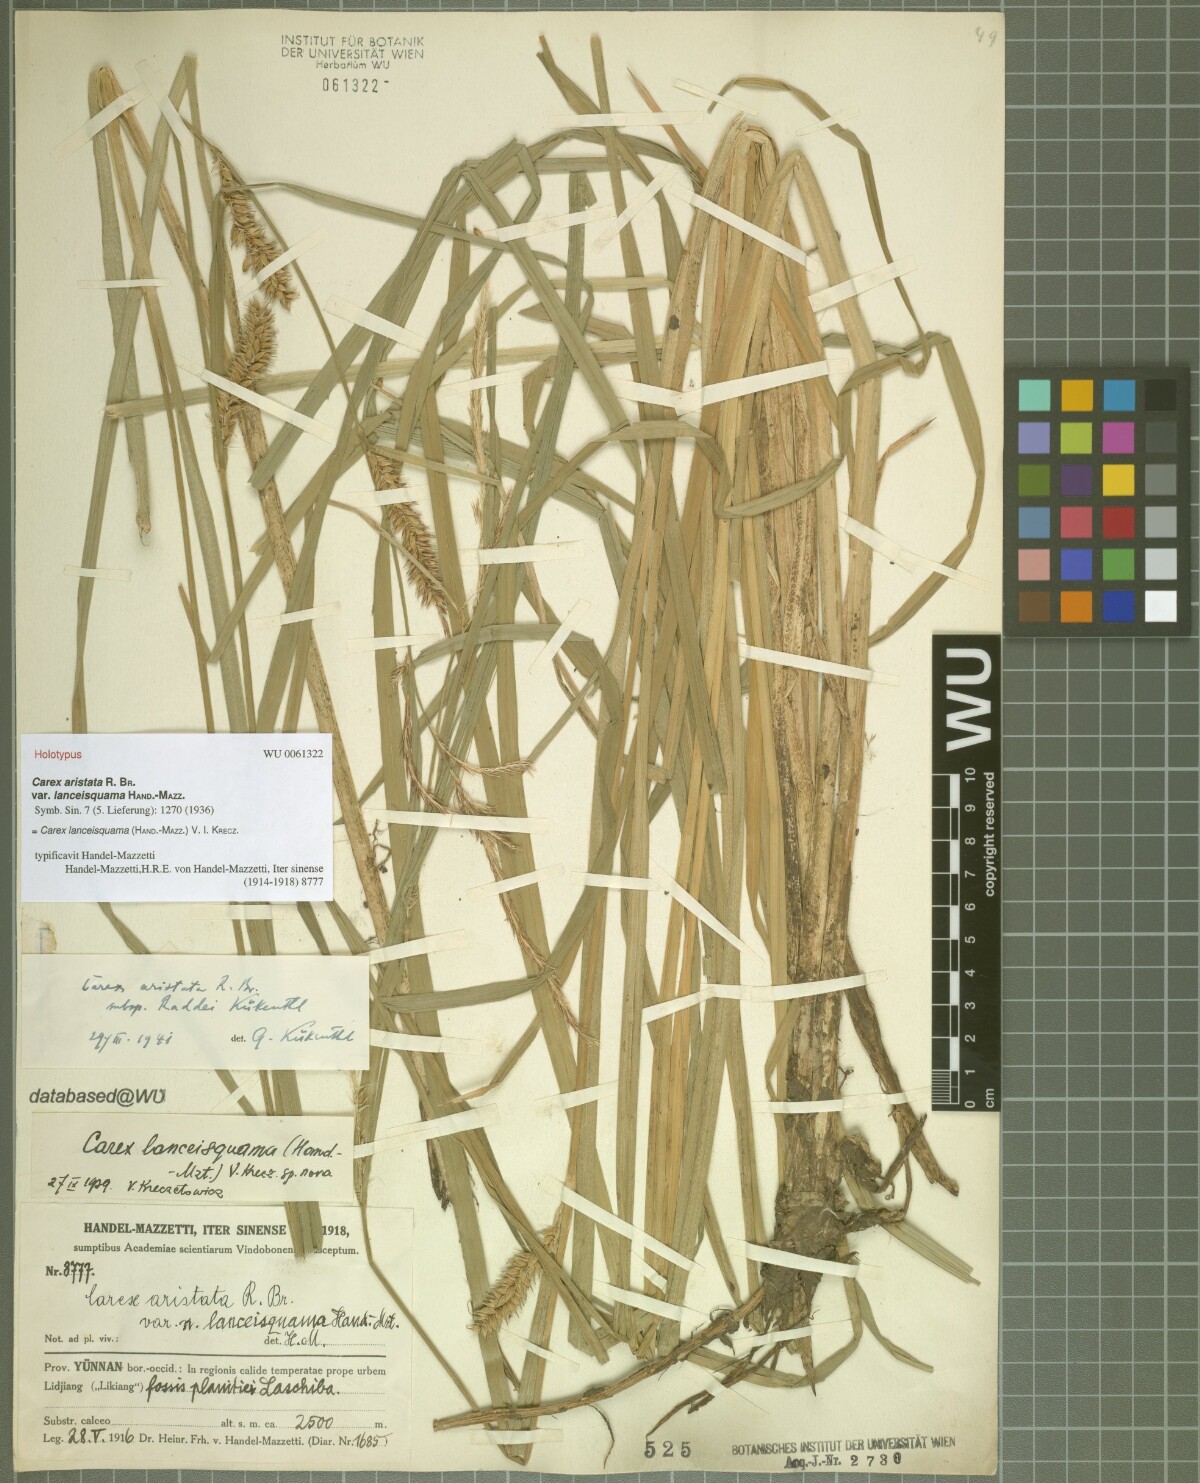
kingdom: Plantae
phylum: Tracheophyta
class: Liliopsida
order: Poales
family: Cyperaceae
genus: Carex
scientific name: Carex lanceisquama
